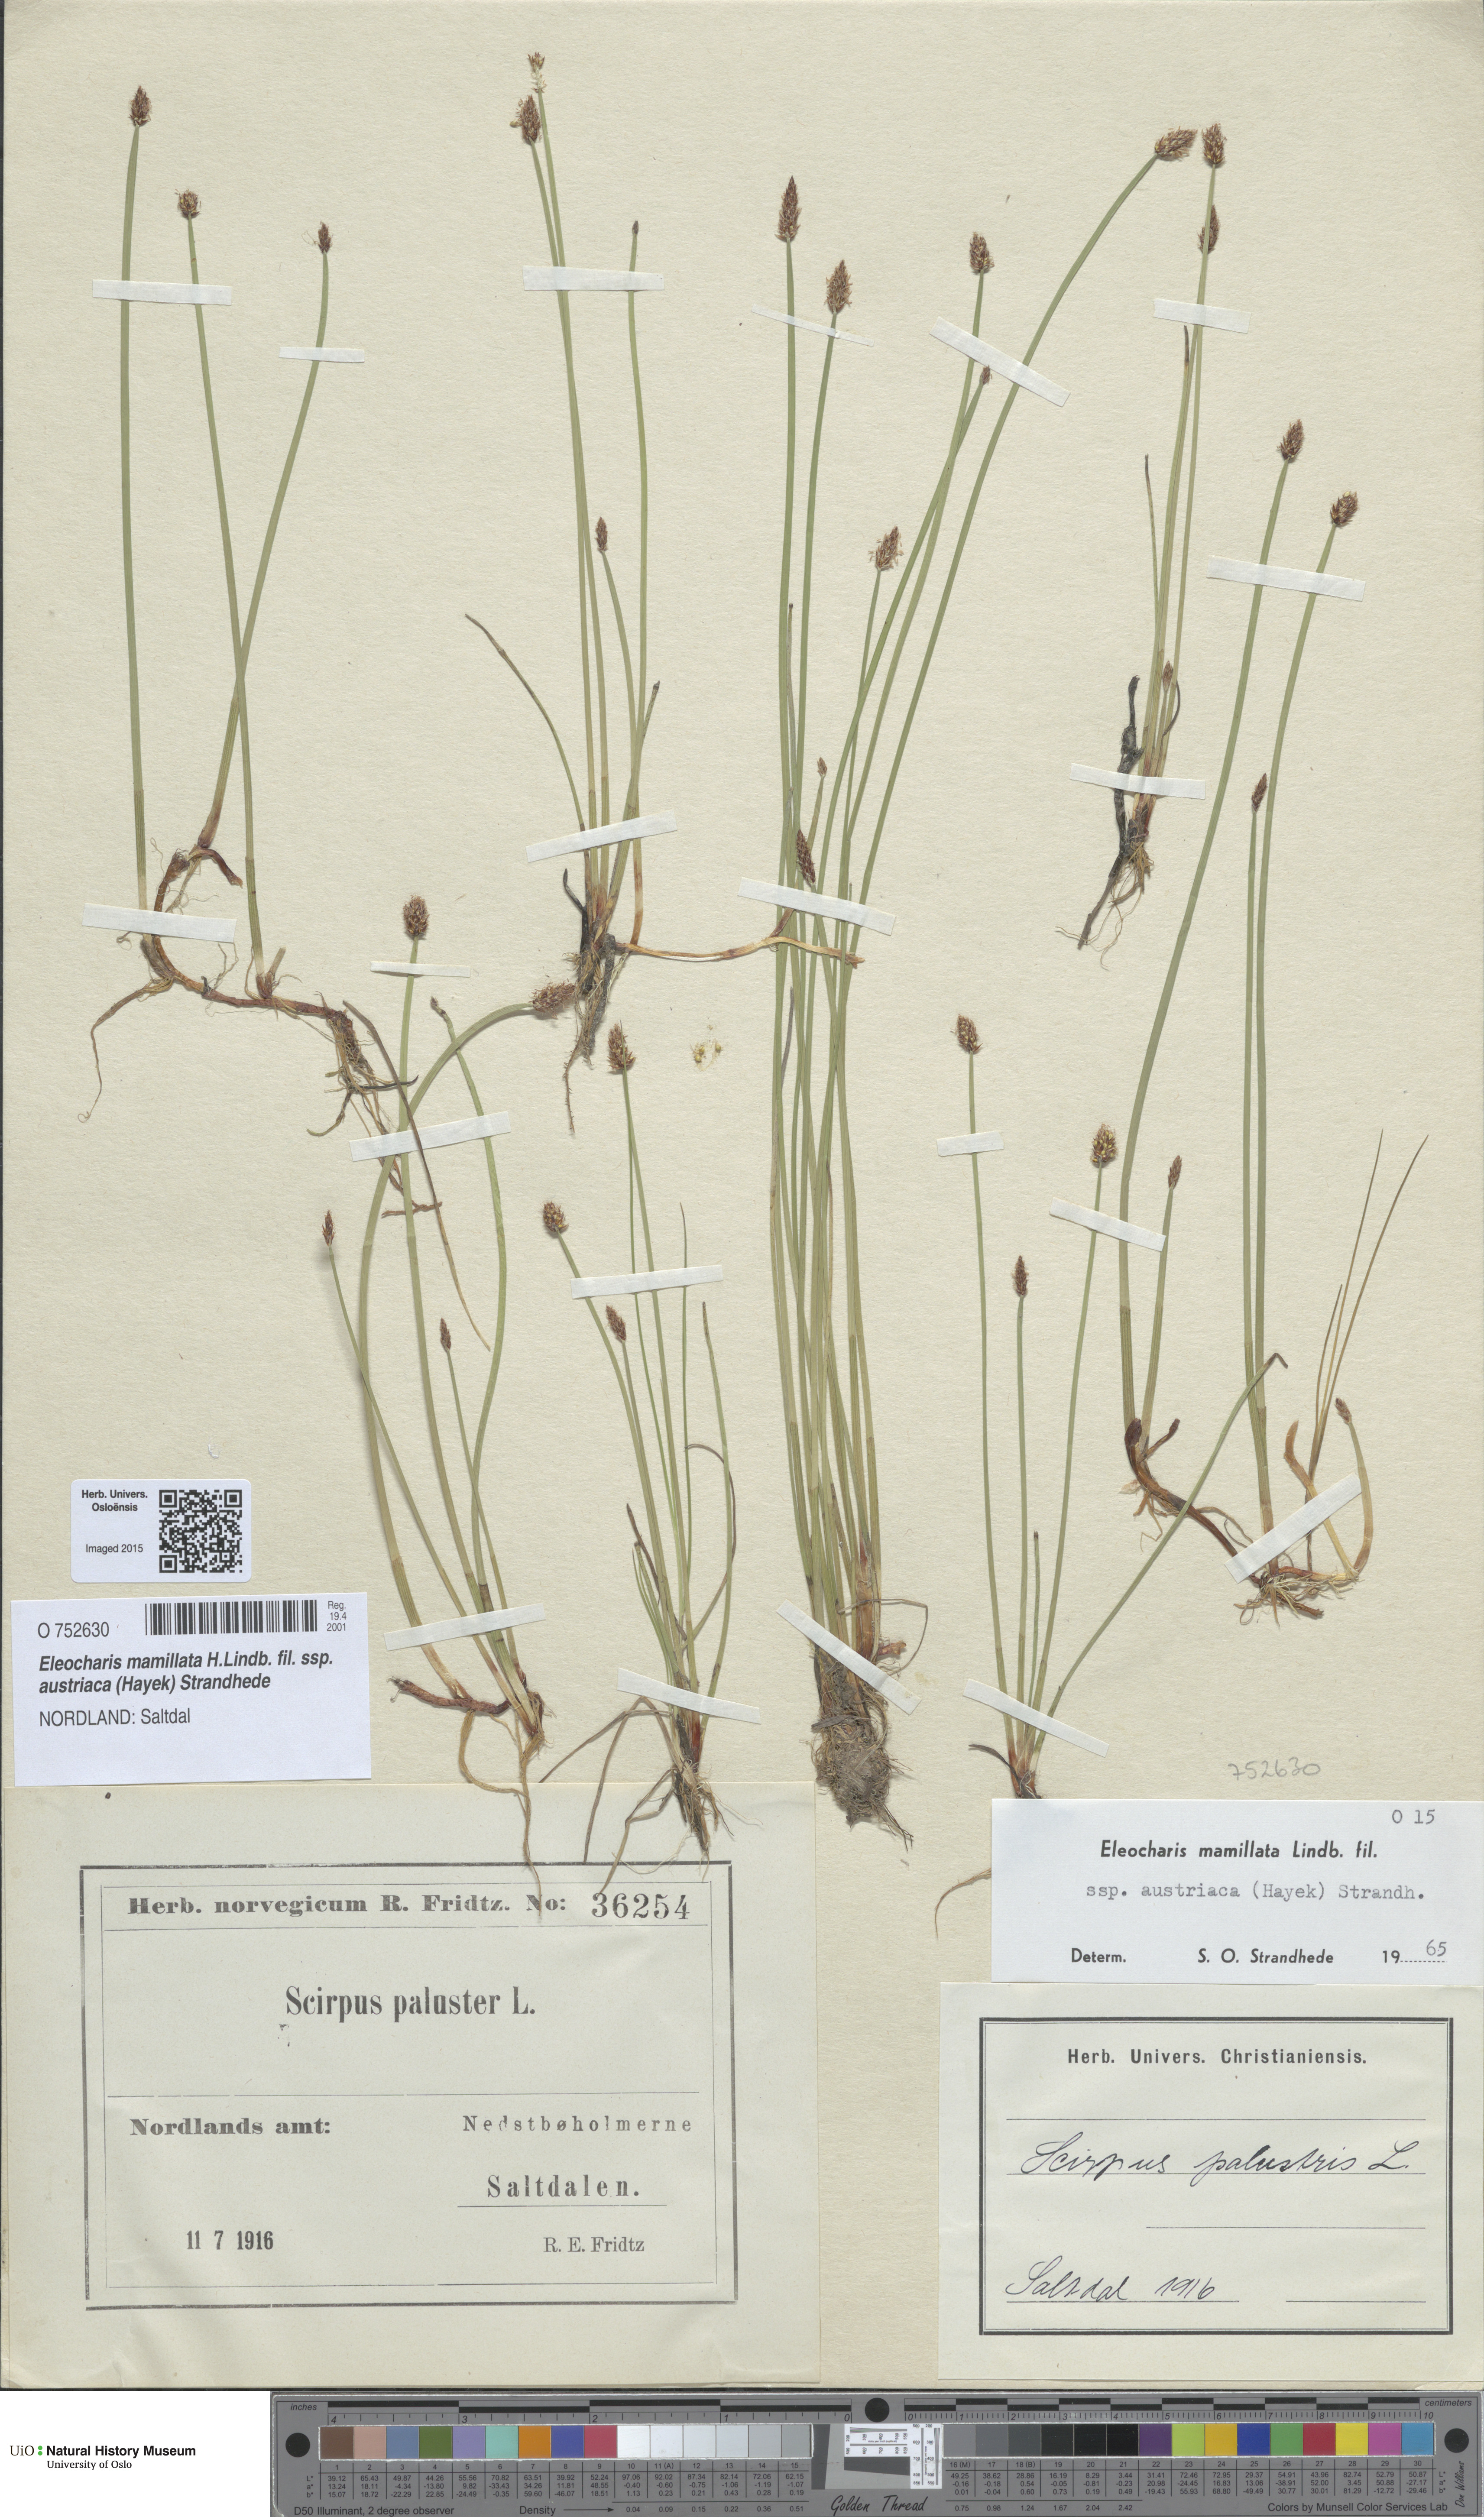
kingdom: Plantae
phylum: Tracheophyta
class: Liliopsida
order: Poales
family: Cyperaceae
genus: Eleocharis
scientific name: Eleocharis mamillata
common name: Northern spike-rush
